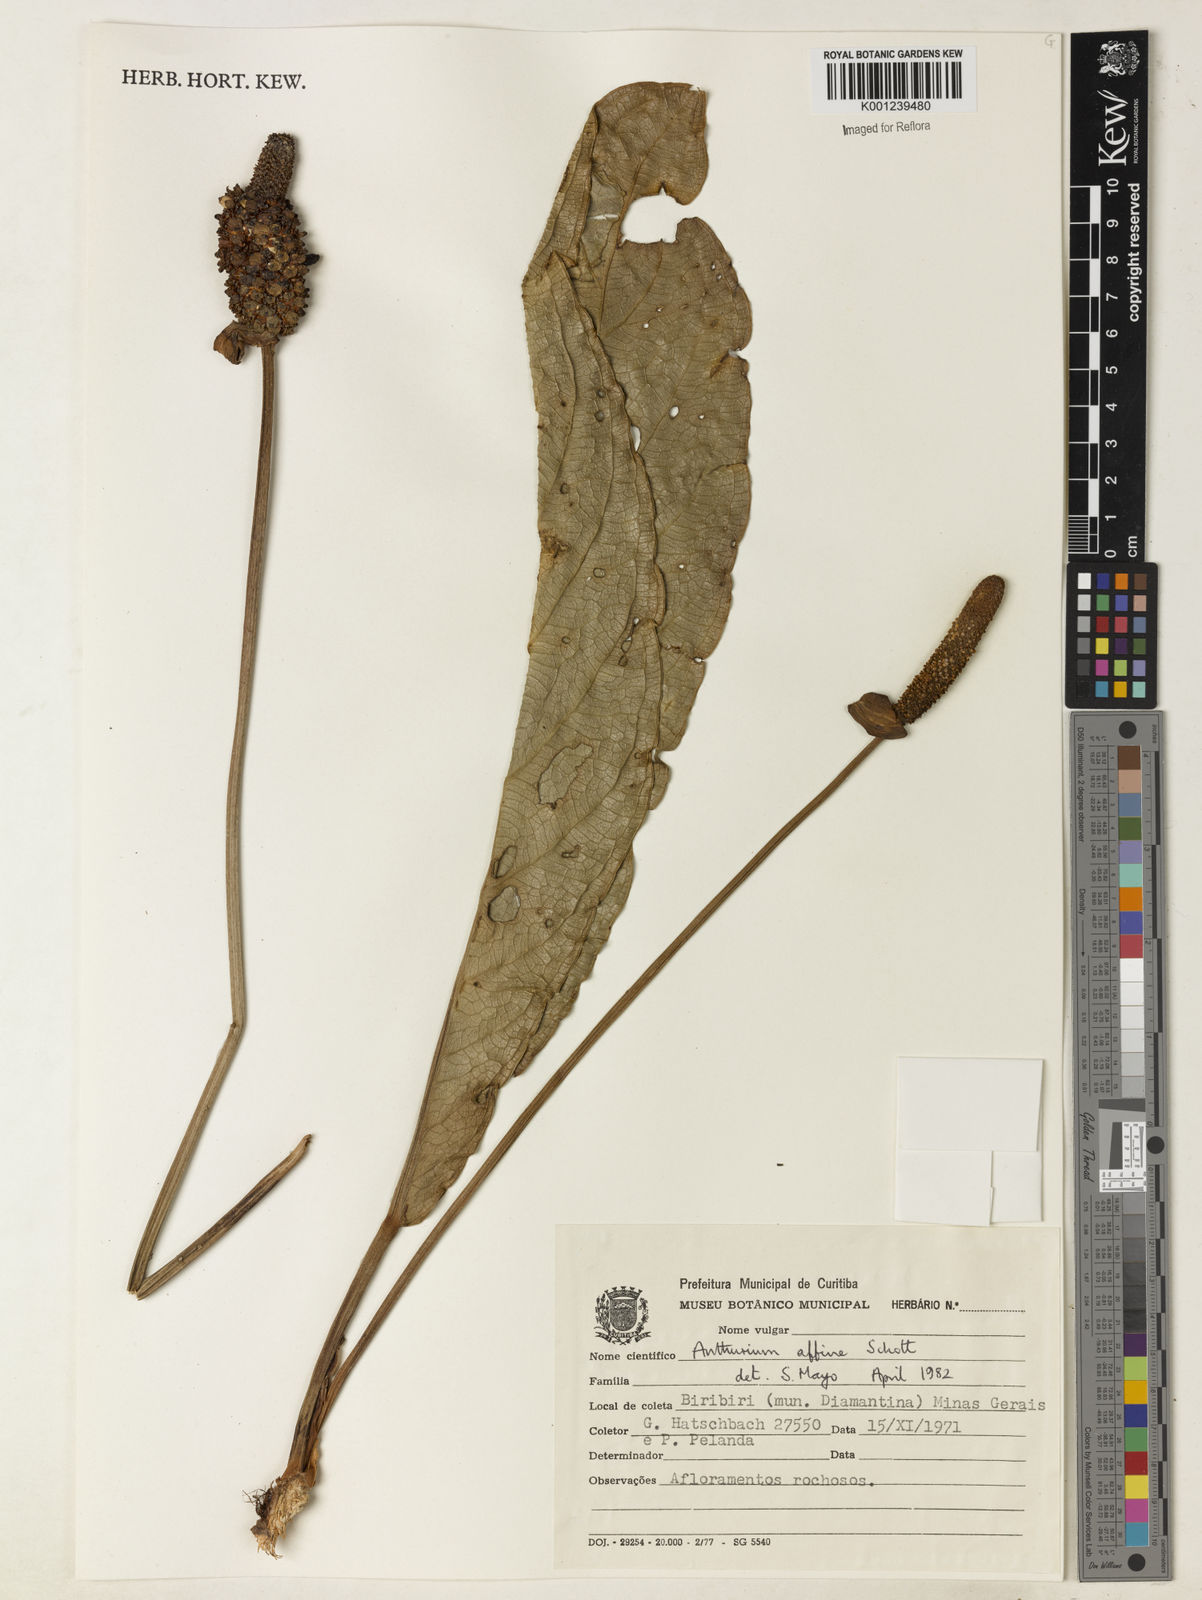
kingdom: Plantae
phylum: Tracheophyta
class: Liliopsida
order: Alismatales
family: Araceae
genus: Anthurium
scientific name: Anthurium affine
